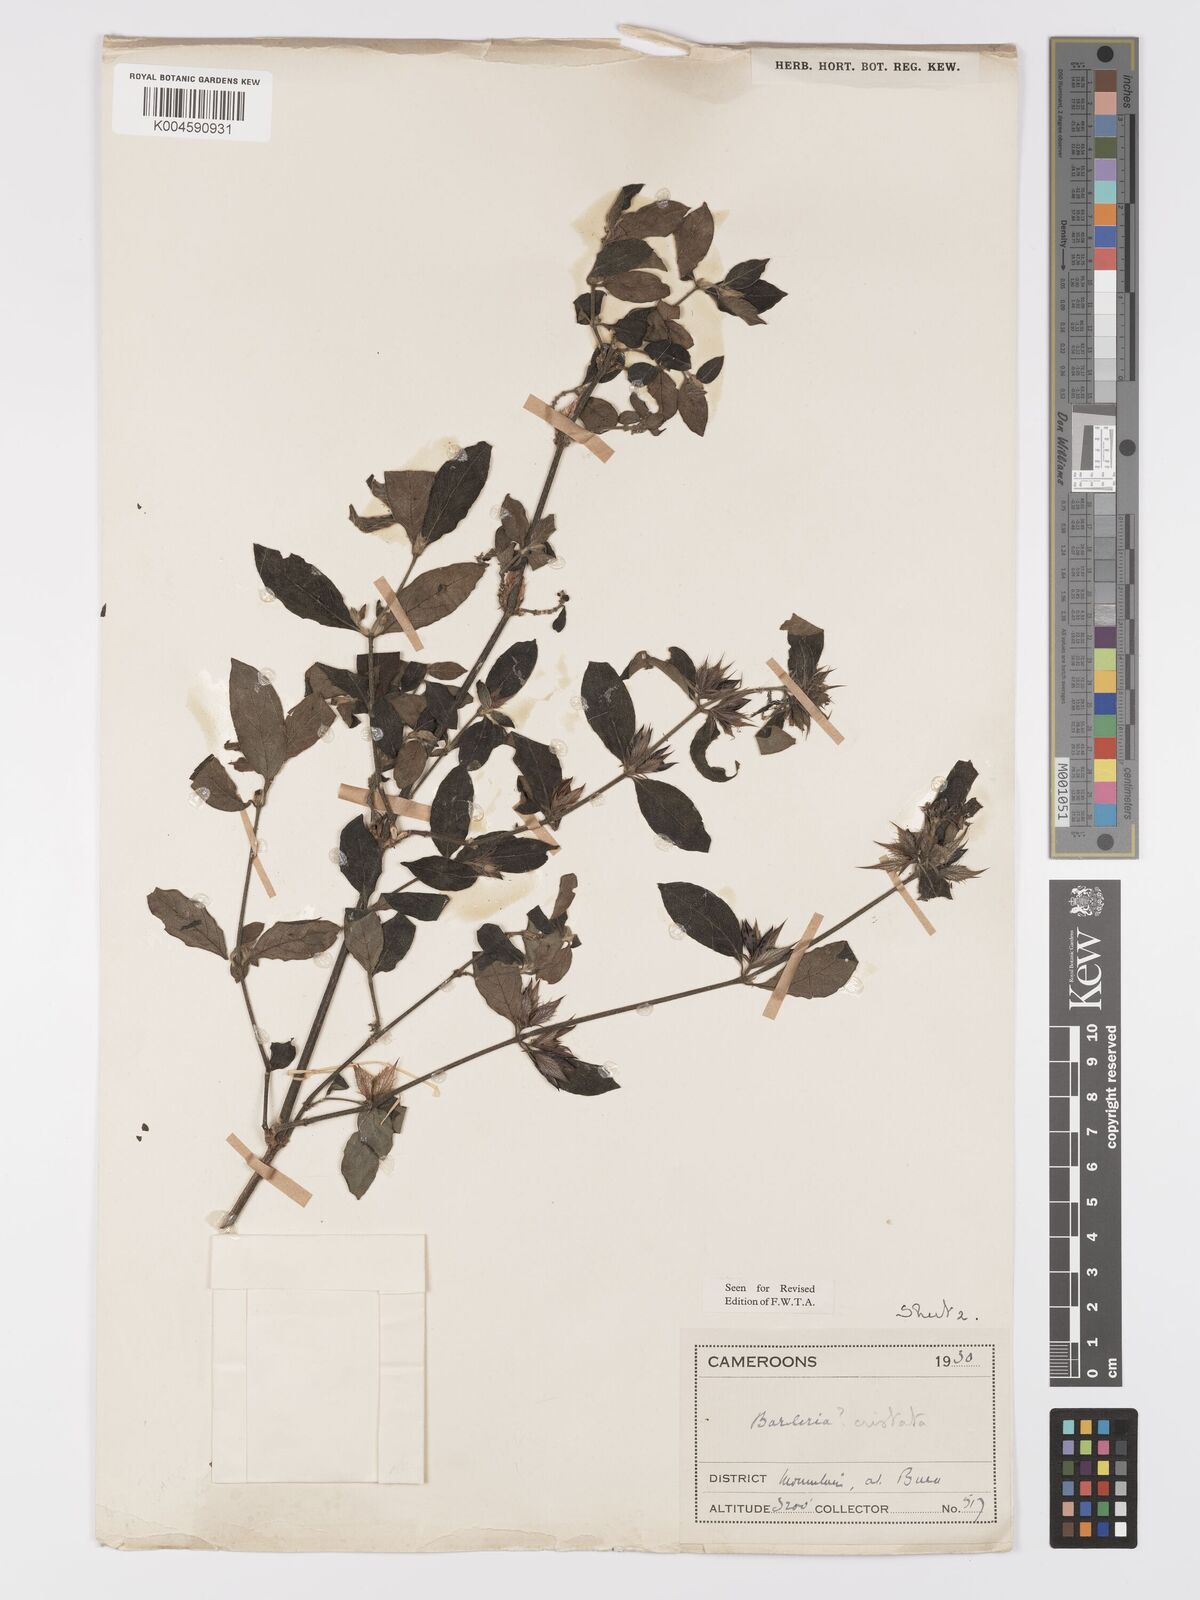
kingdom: Plantae
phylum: Tracheophyta
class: Magnoliopsida
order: Lamiales
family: Acanthaceae
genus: Barleria
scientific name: Barleria cristata
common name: Crested philippine violet
